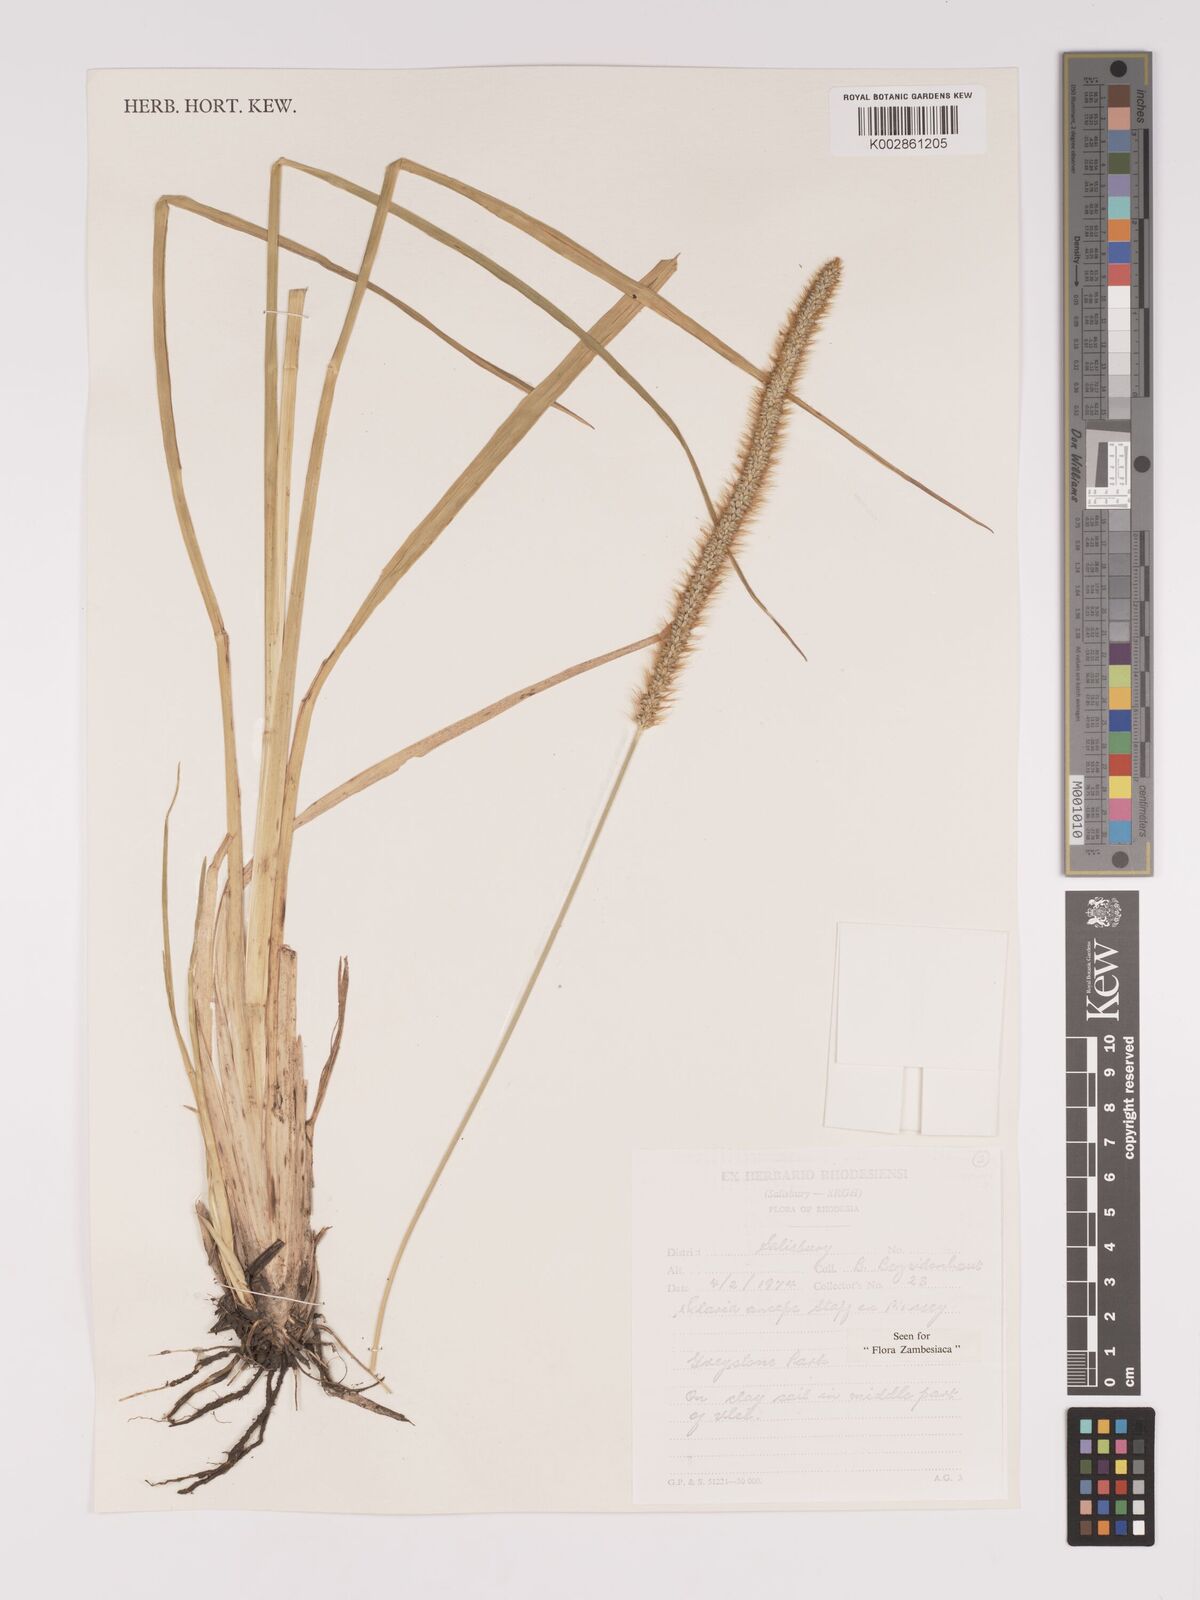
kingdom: Plantae
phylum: Tracheophyta
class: Liliopsida
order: Poales
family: Poaceae
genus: Setaria
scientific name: Setaria sphacelata
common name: African bristlegrass
